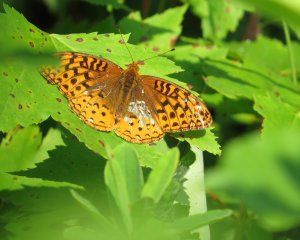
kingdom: Animalia
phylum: Arthropoda
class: Insecta
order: Lepidoptera
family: Nymphalidae
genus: Speyeria
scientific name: Speyeria cybele
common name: Great Spangled Fritillary
